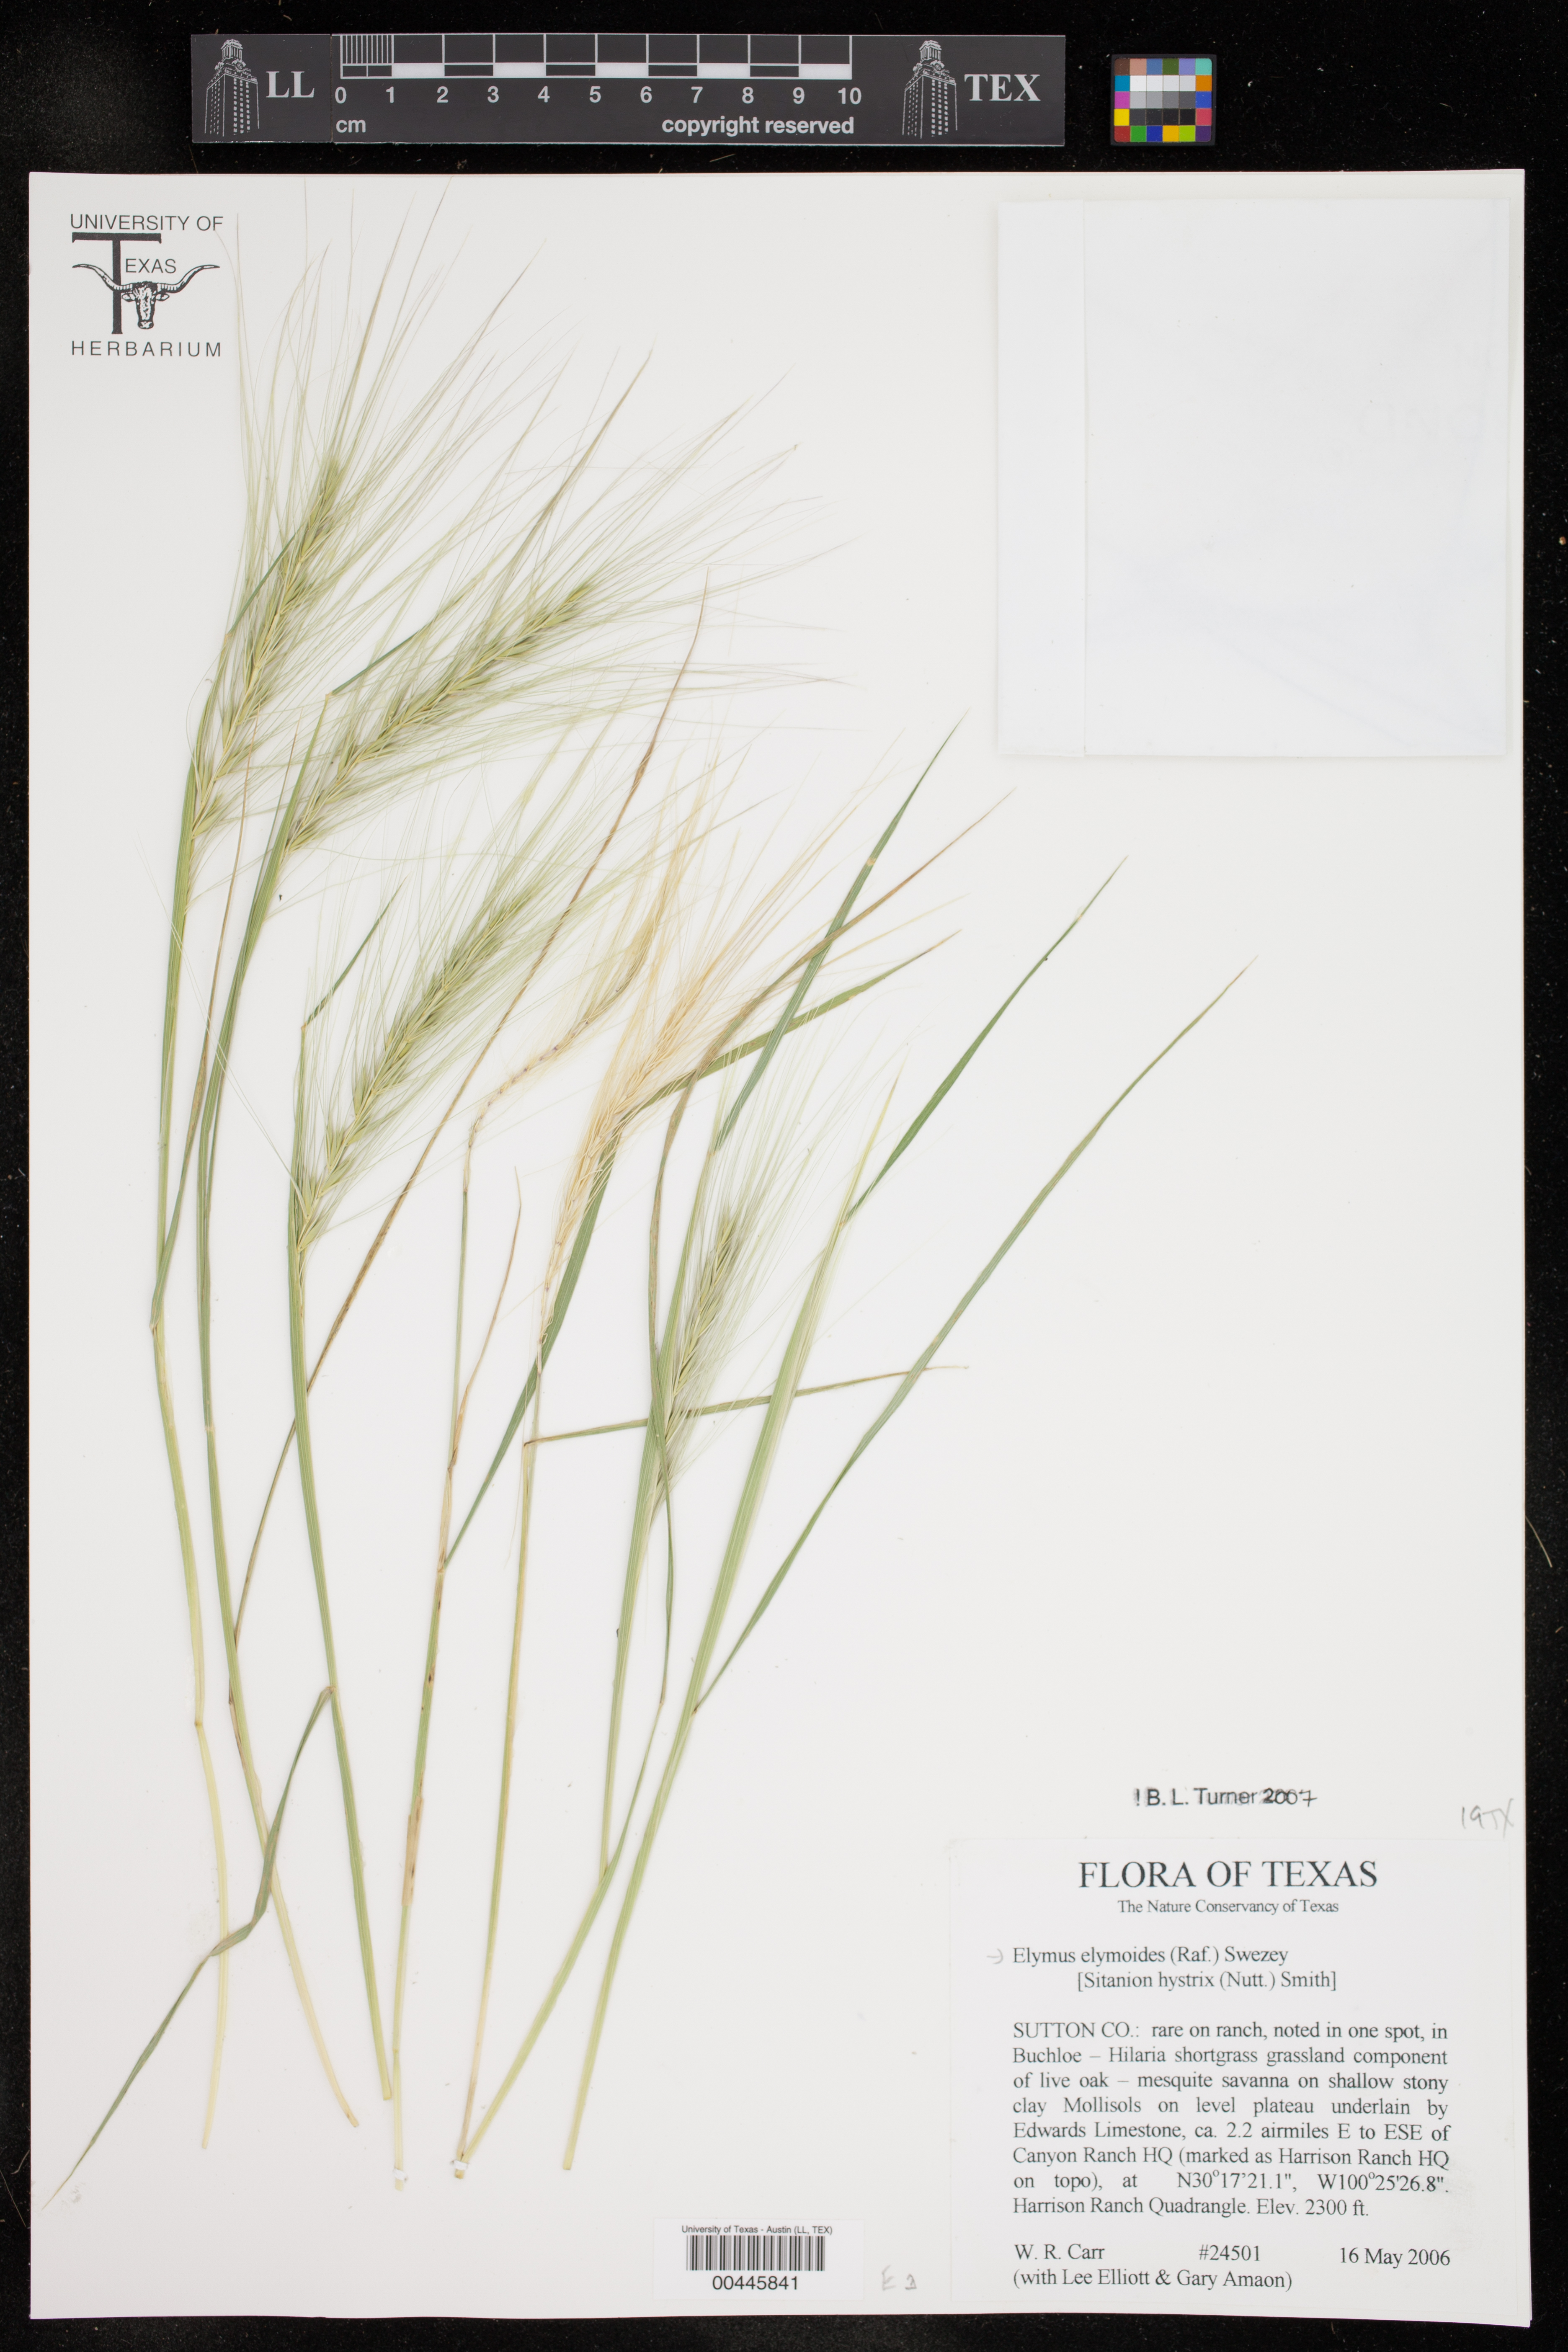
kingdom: Plantae
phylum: Tracheophyta
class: Liliopsida
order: Poales
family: Poaceae
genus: Elymus
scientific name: Elymus elymoides
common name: Bottlebrush squirreltail
